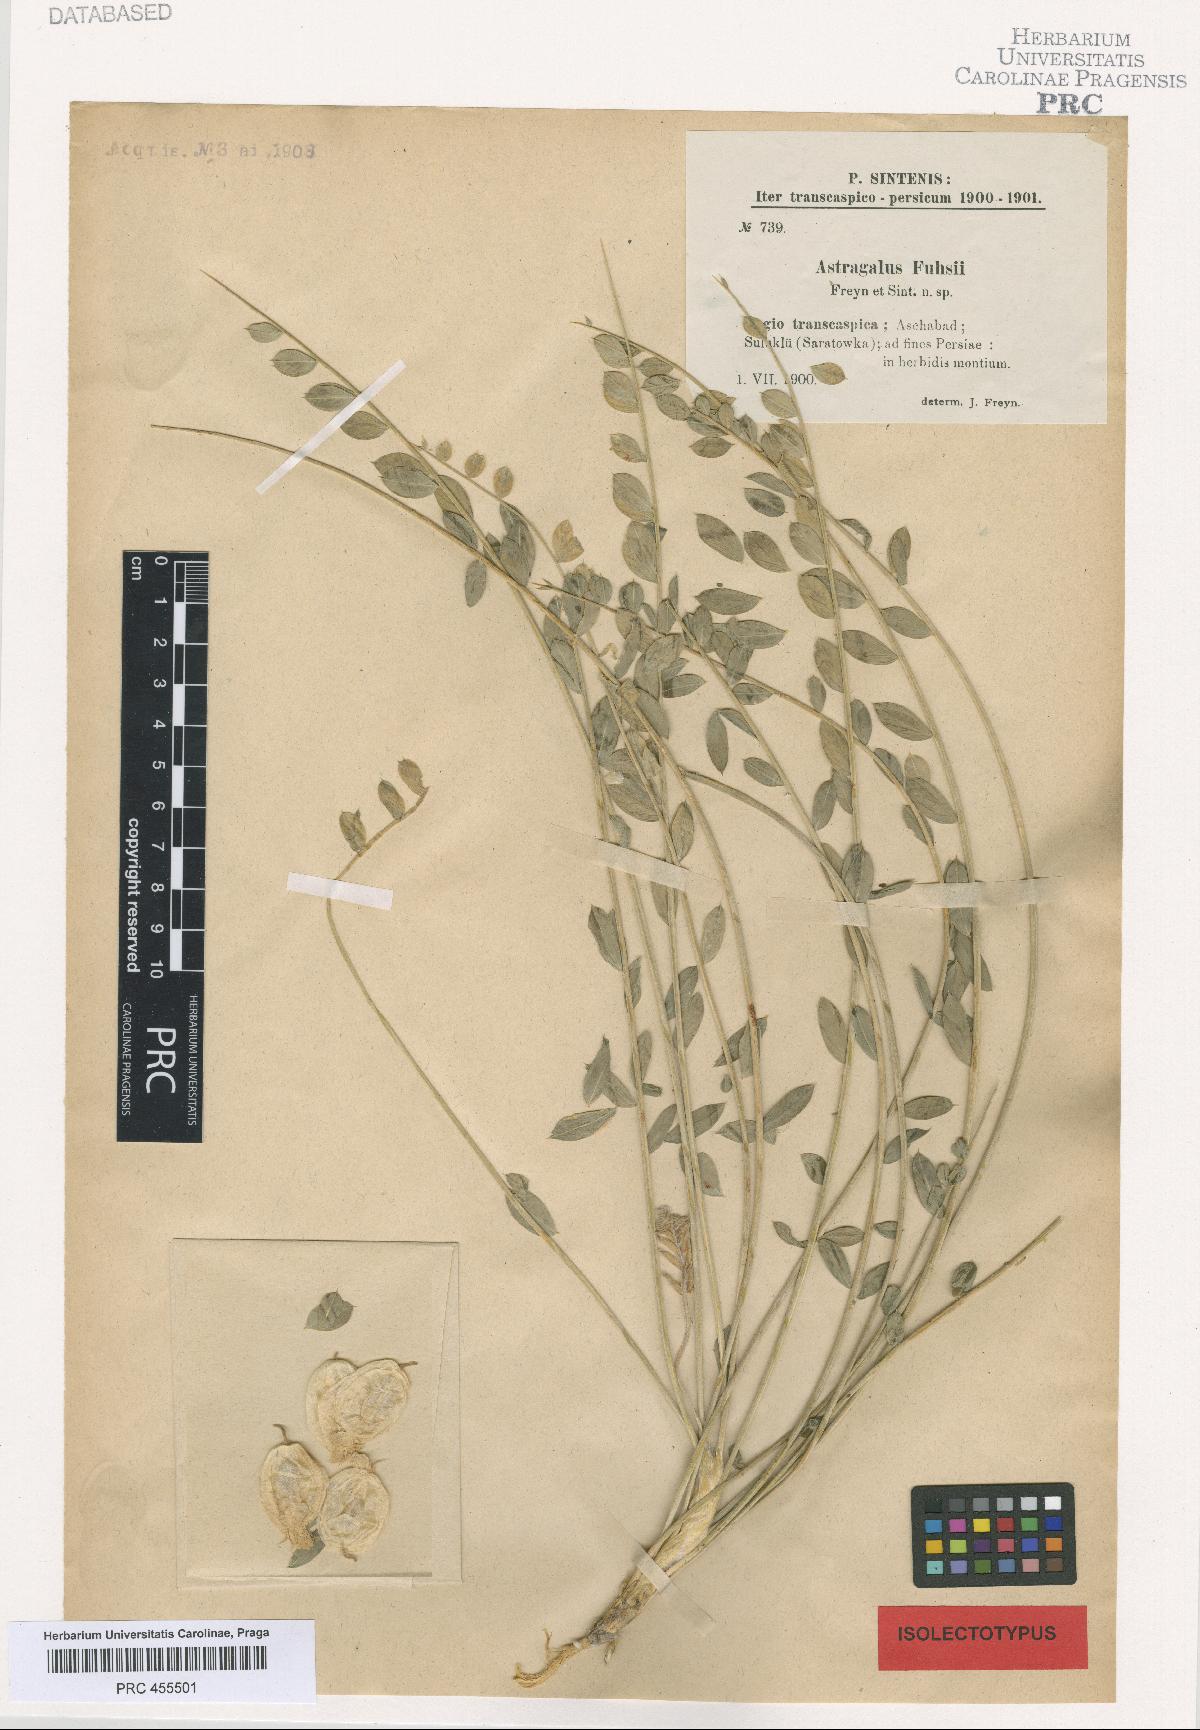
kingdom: Plantae
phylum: Tracheophyta
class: Magnoliopsida
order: Fabales
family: Fabaceae
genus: Astragalus
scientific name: Astragalus fuhsii
